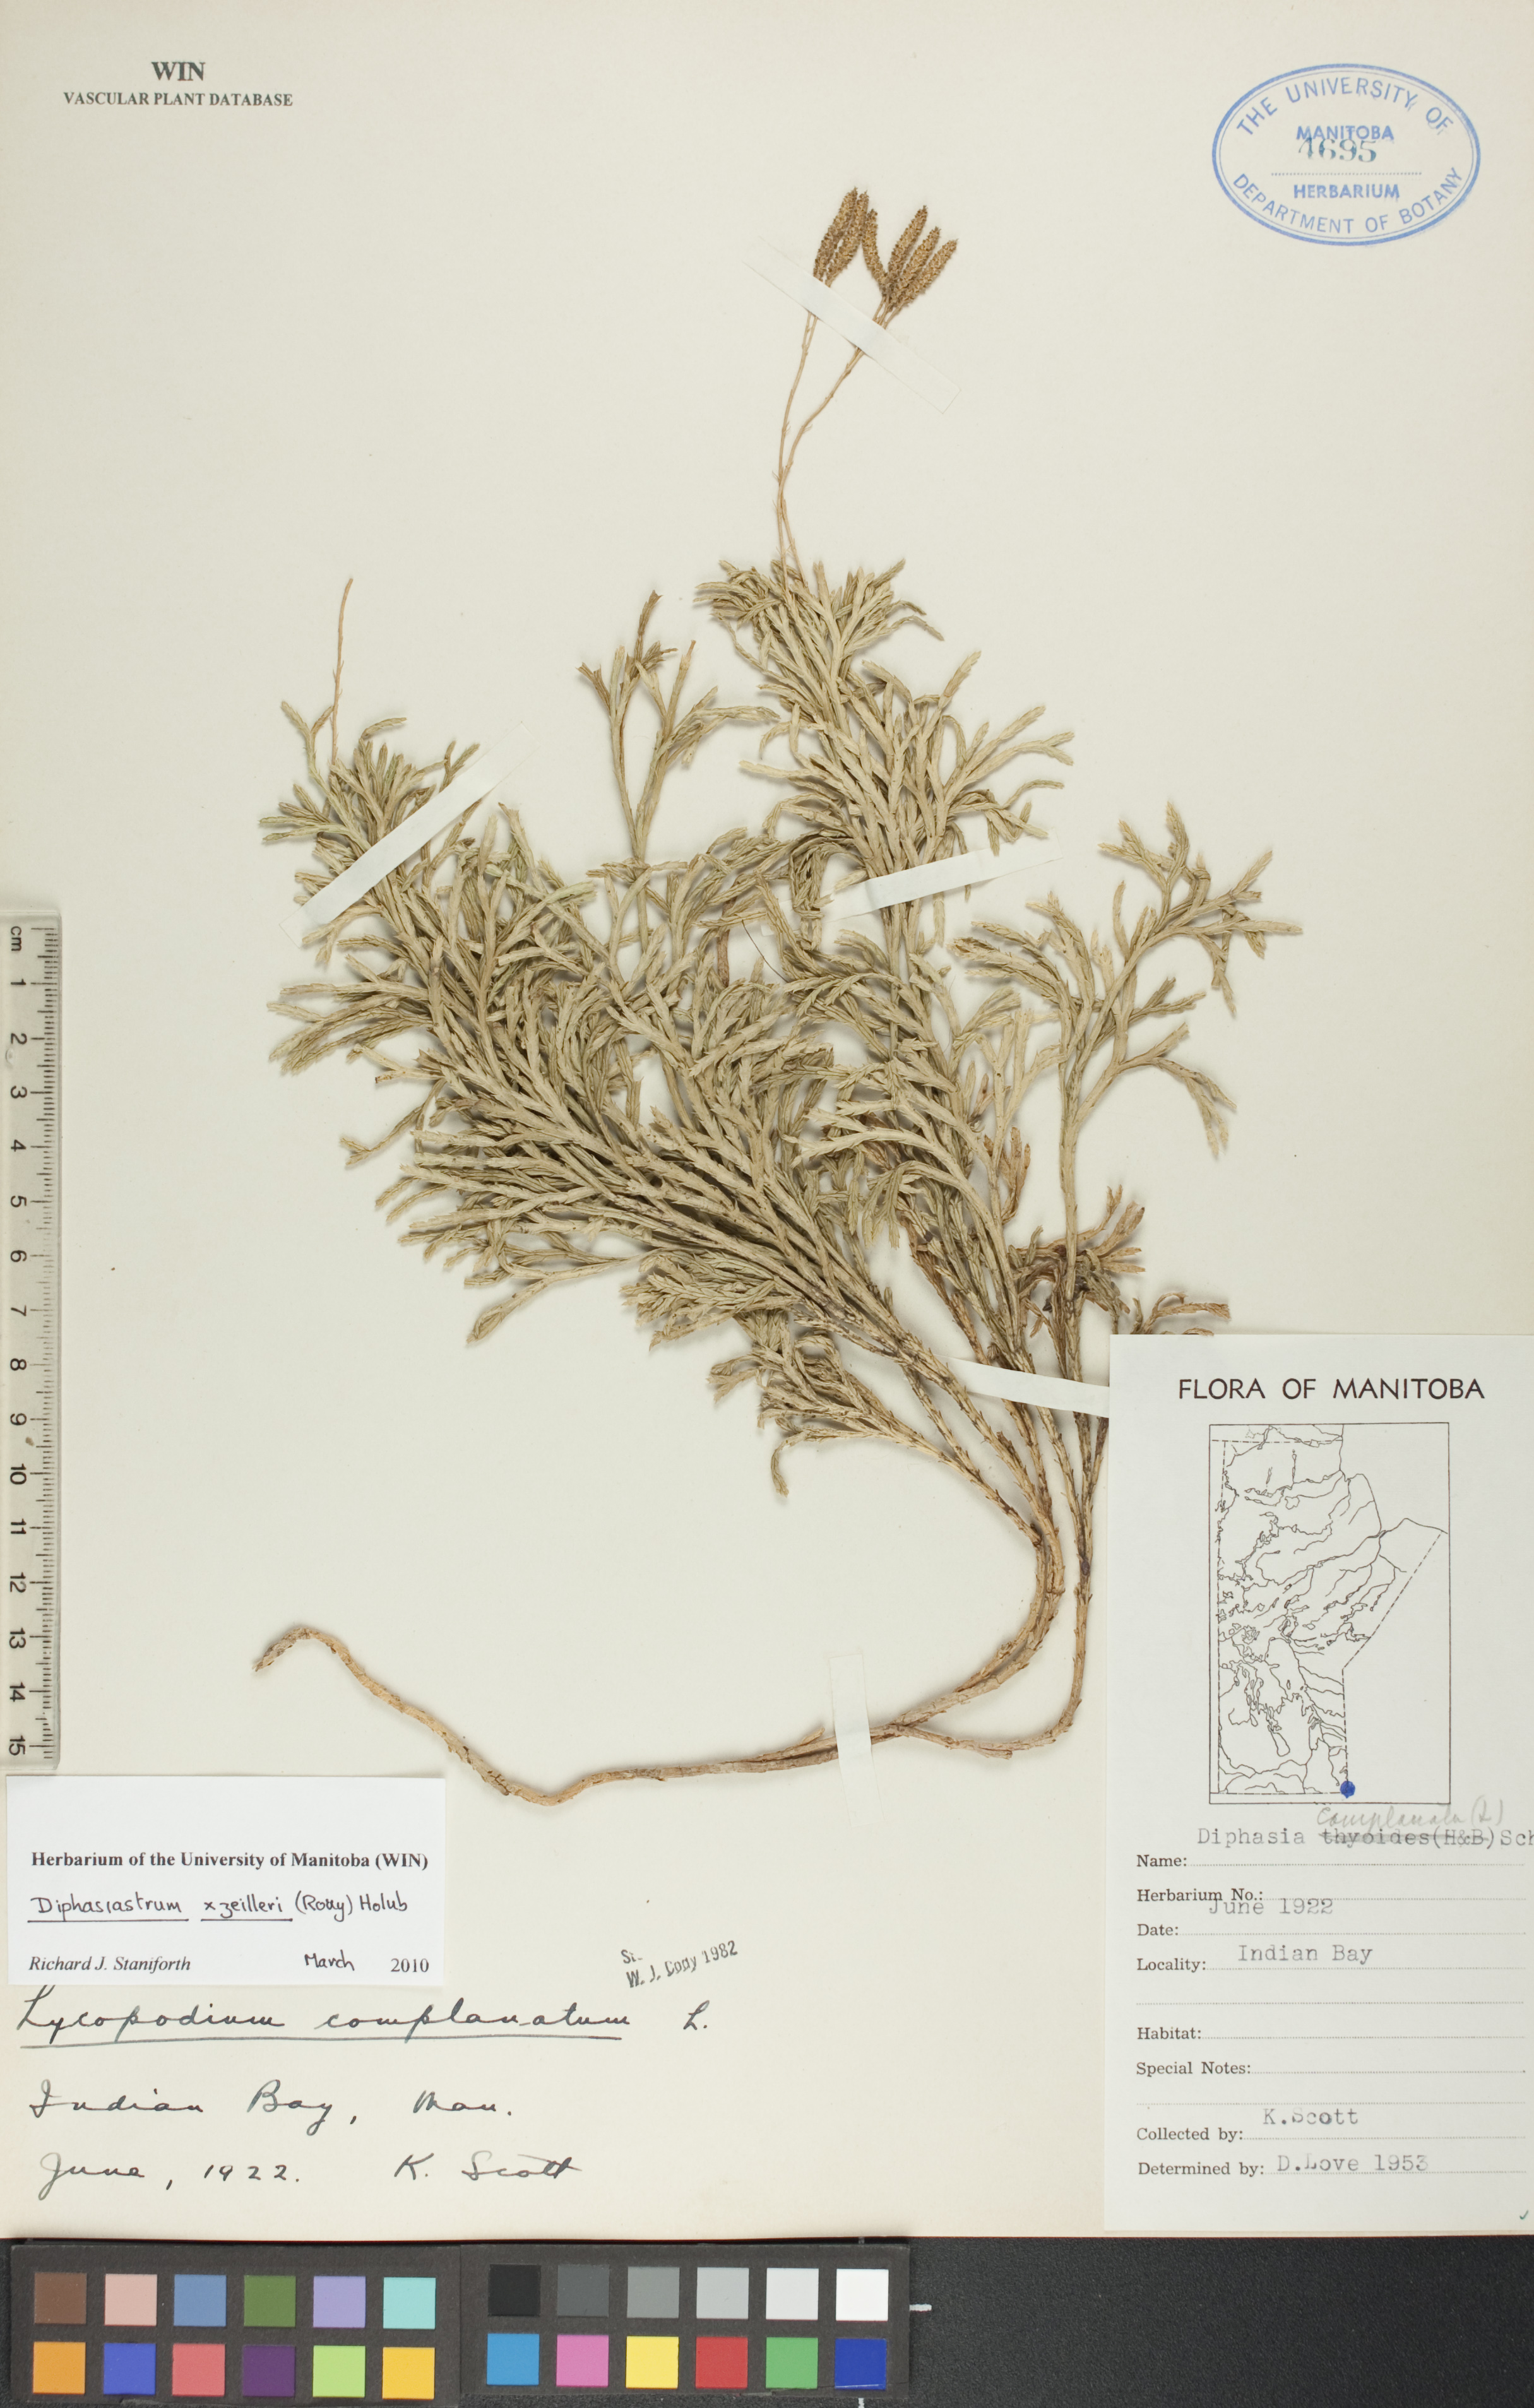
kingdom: Plantae
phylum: Tracheophyta
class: Lycopodiopsida
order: Lycopodiales
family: Lycopodiaceae
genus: Diphasiastrum
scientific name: Diphasiastrum zeilleri
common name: Zeiller's clubmoss
